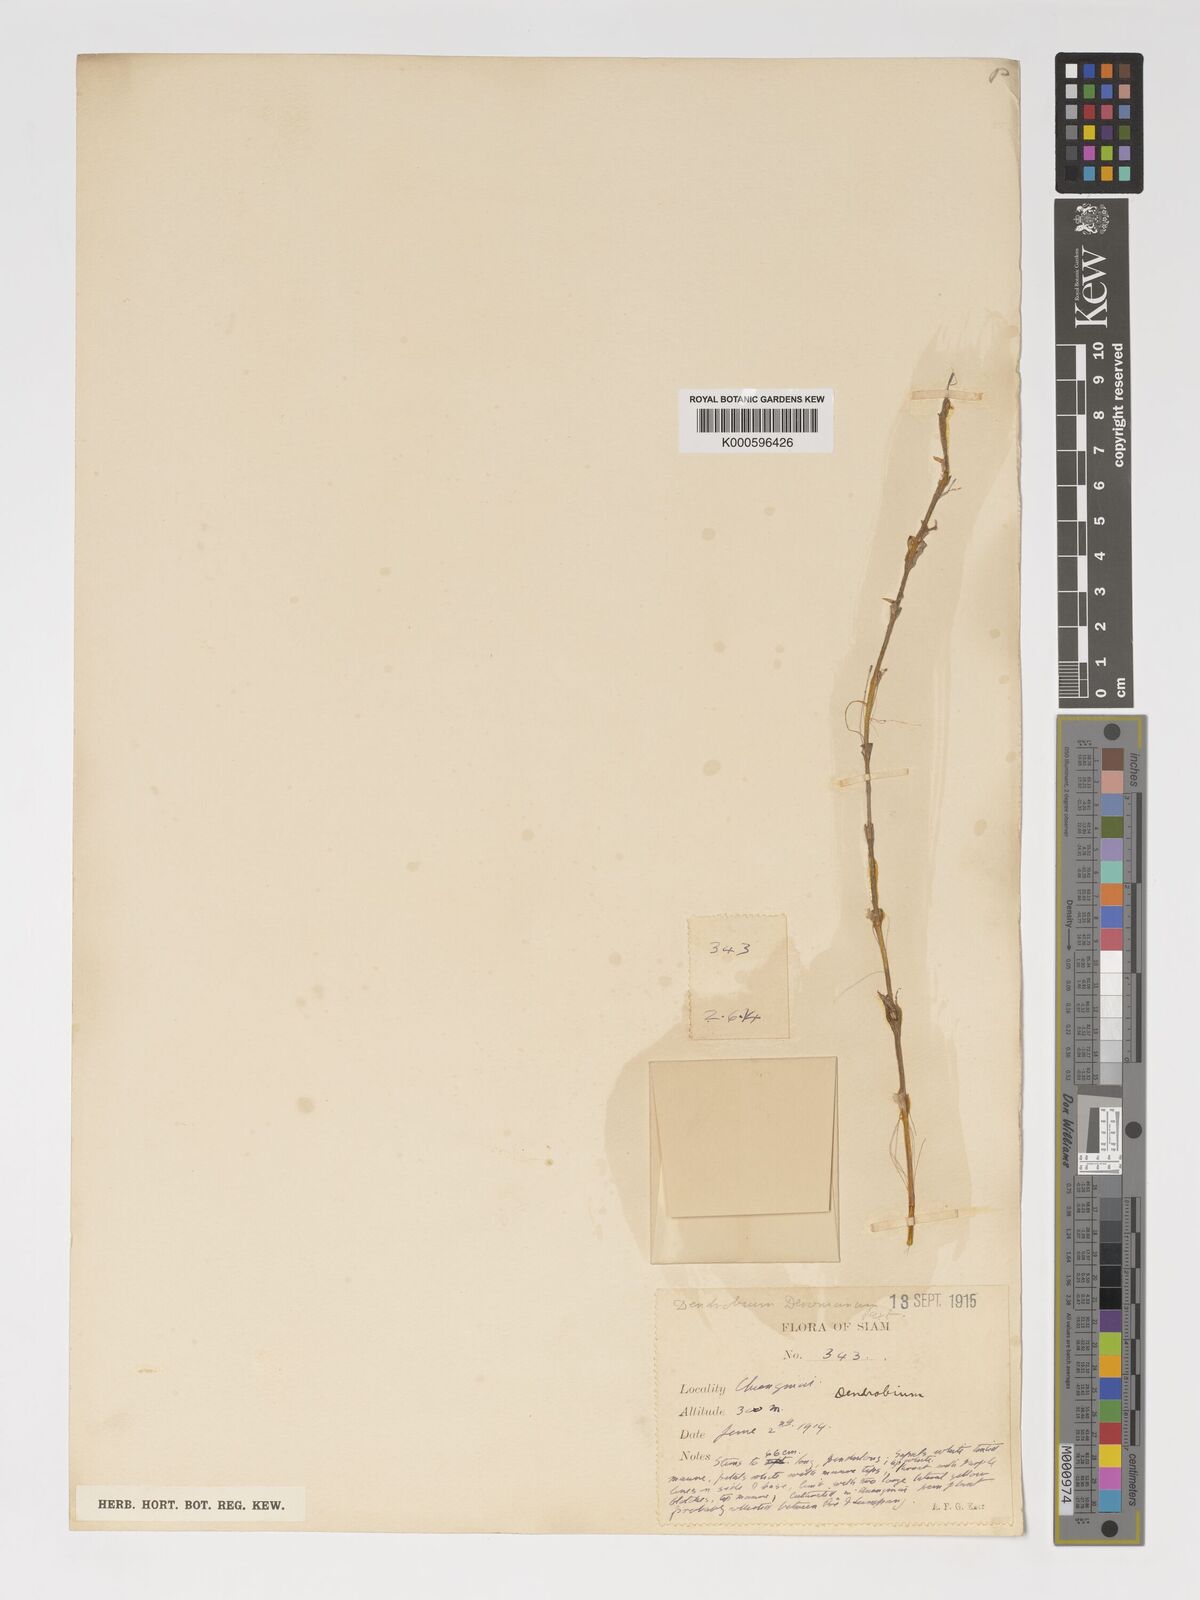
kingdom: Plantae
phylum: Tracheophyta
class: Liliopsida
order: Asparagales
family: Orchidaceae
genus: Dendrobium
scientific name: Dendrobium devonianum
